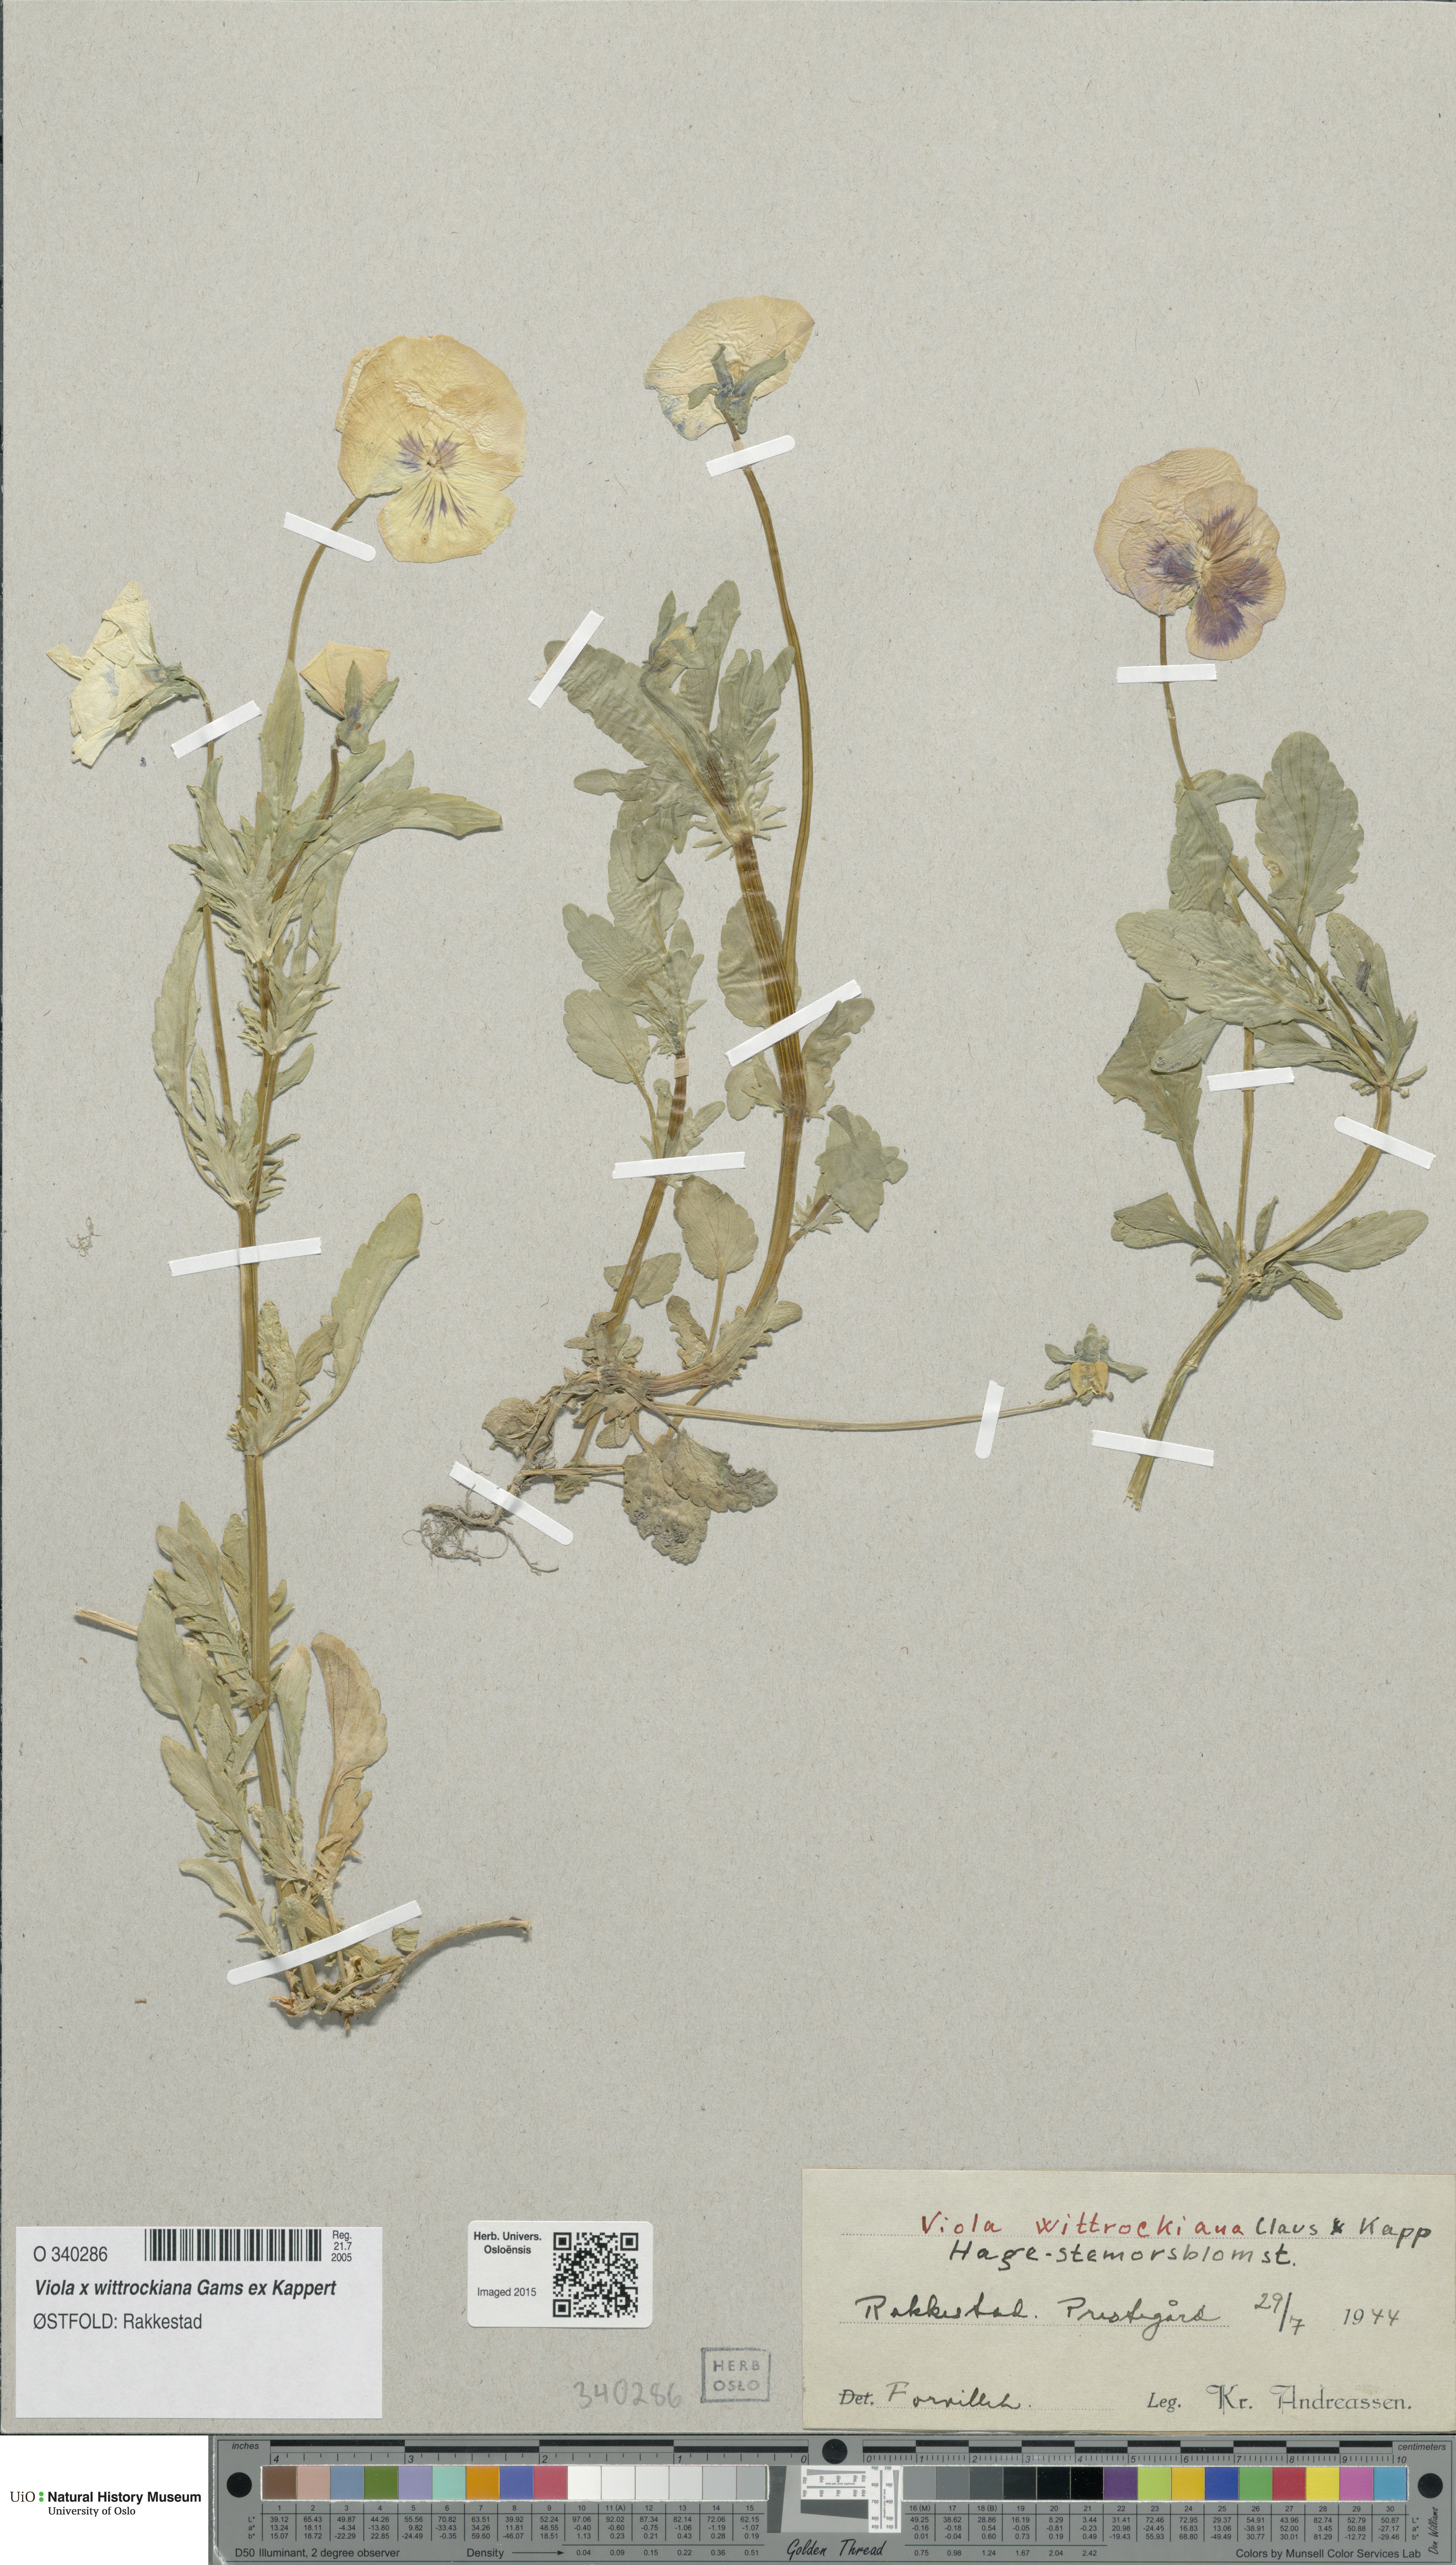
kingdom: Plantae
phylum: Tracheophyta
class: Magnoliopsida
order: Malpighiales
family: Violaceae
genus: Viola
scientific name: Viola wittrockiana
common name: Garden pansy
